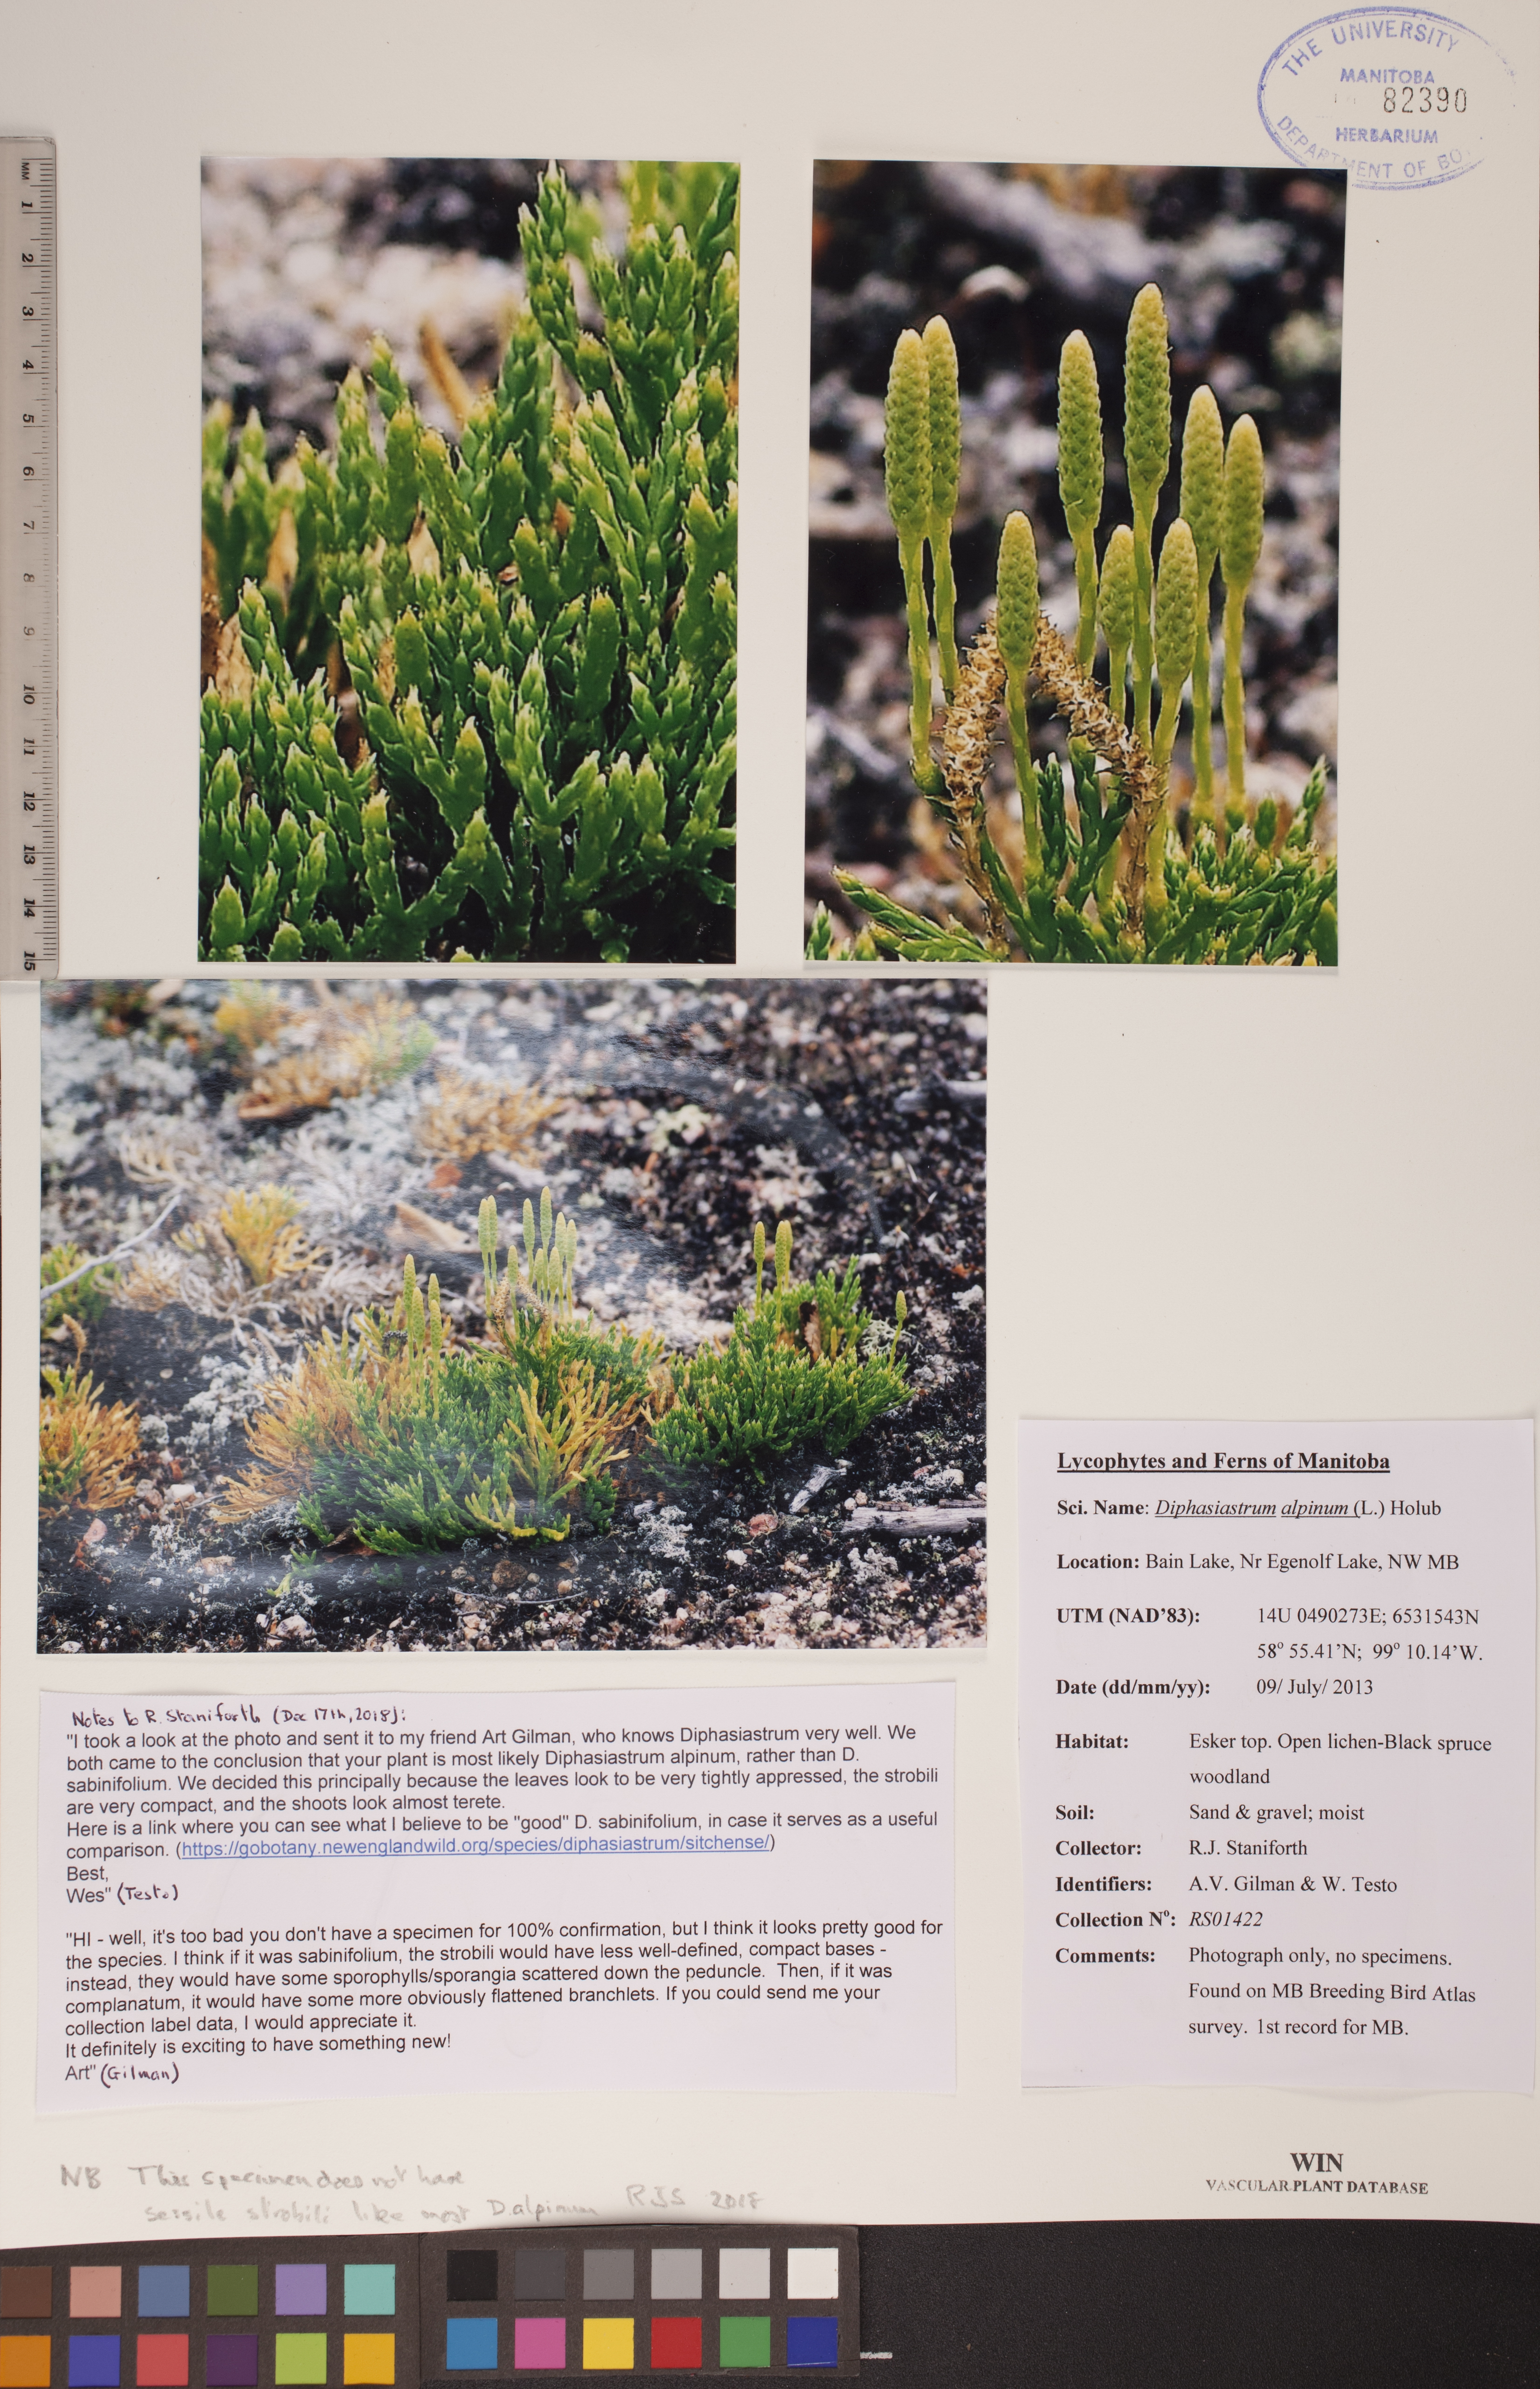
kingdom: Plantae
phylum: Tracheophyta
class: Lycopodiopsida
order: Lycopodiales
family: Lycopodiaceae
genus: Diphasiastrum
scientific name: Diphasiastrum alpinum
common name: Alpine clubmoss
